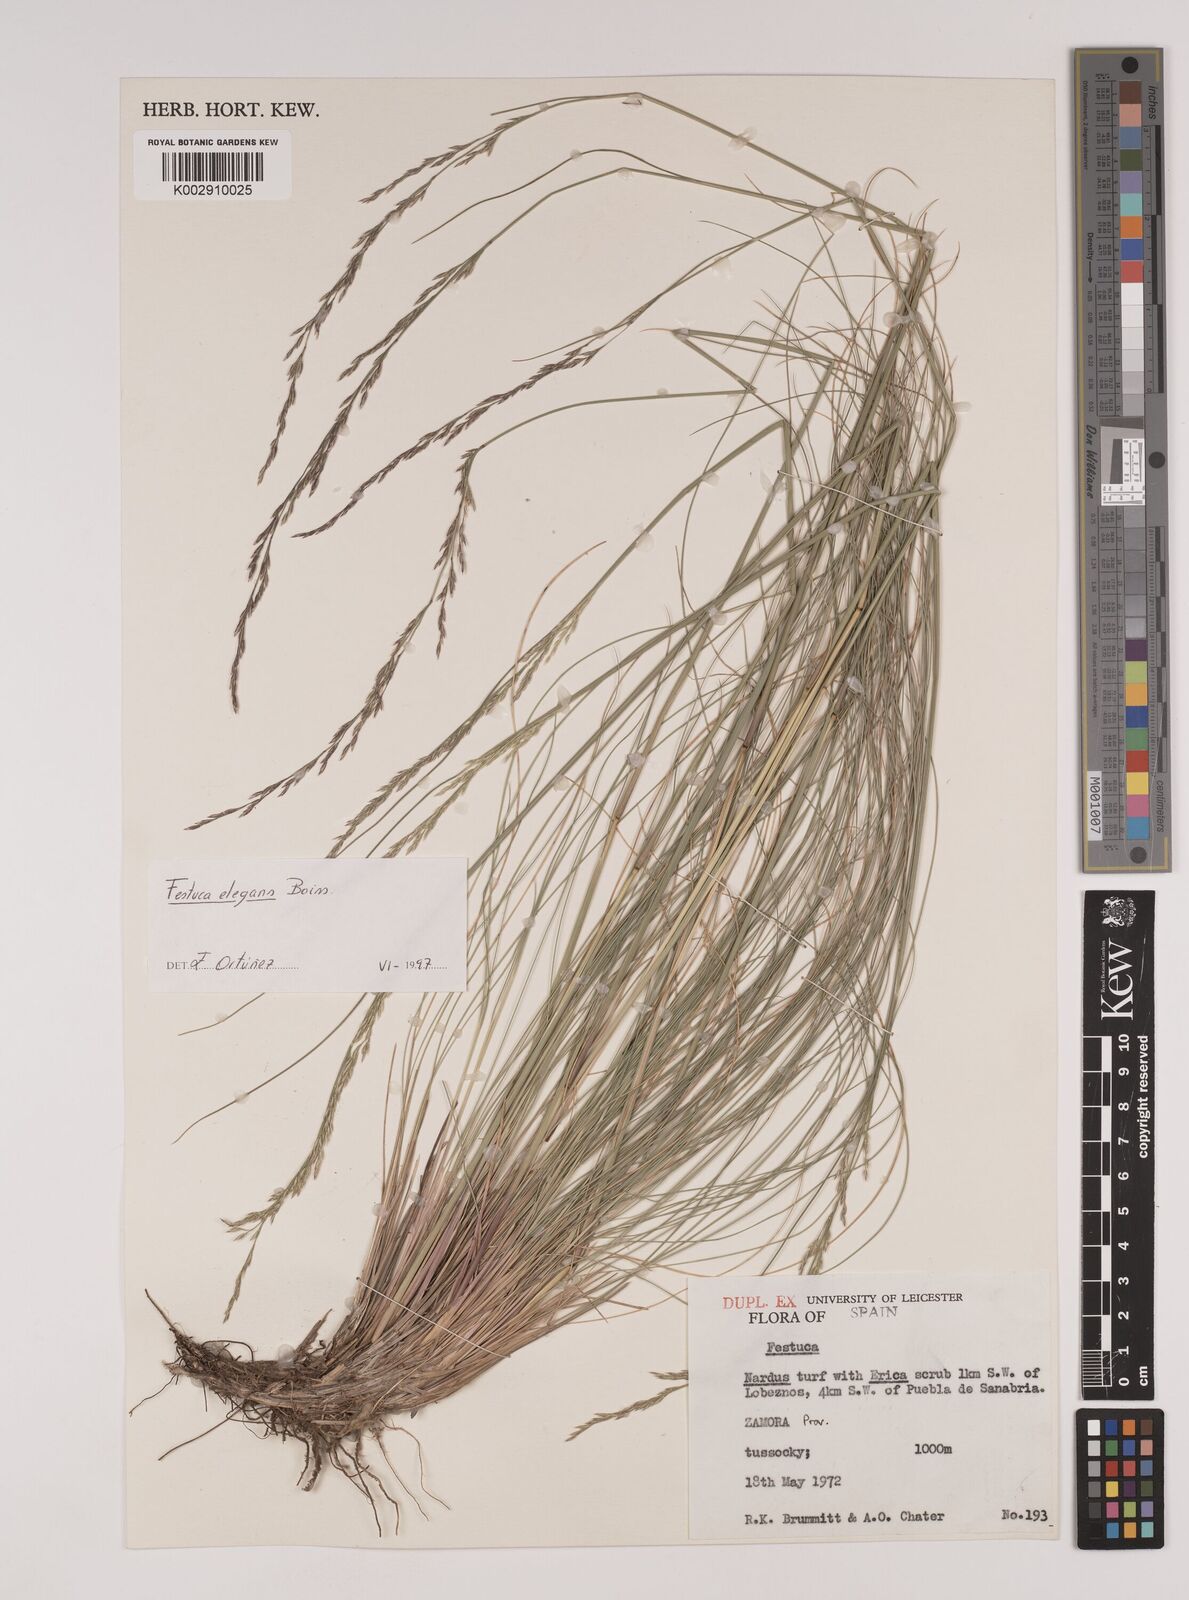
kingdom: Plantae
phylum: Tracheophyta
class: Liliopsida
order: Poales
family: Poaceae
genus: Festuca
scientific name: Festuca elegans
